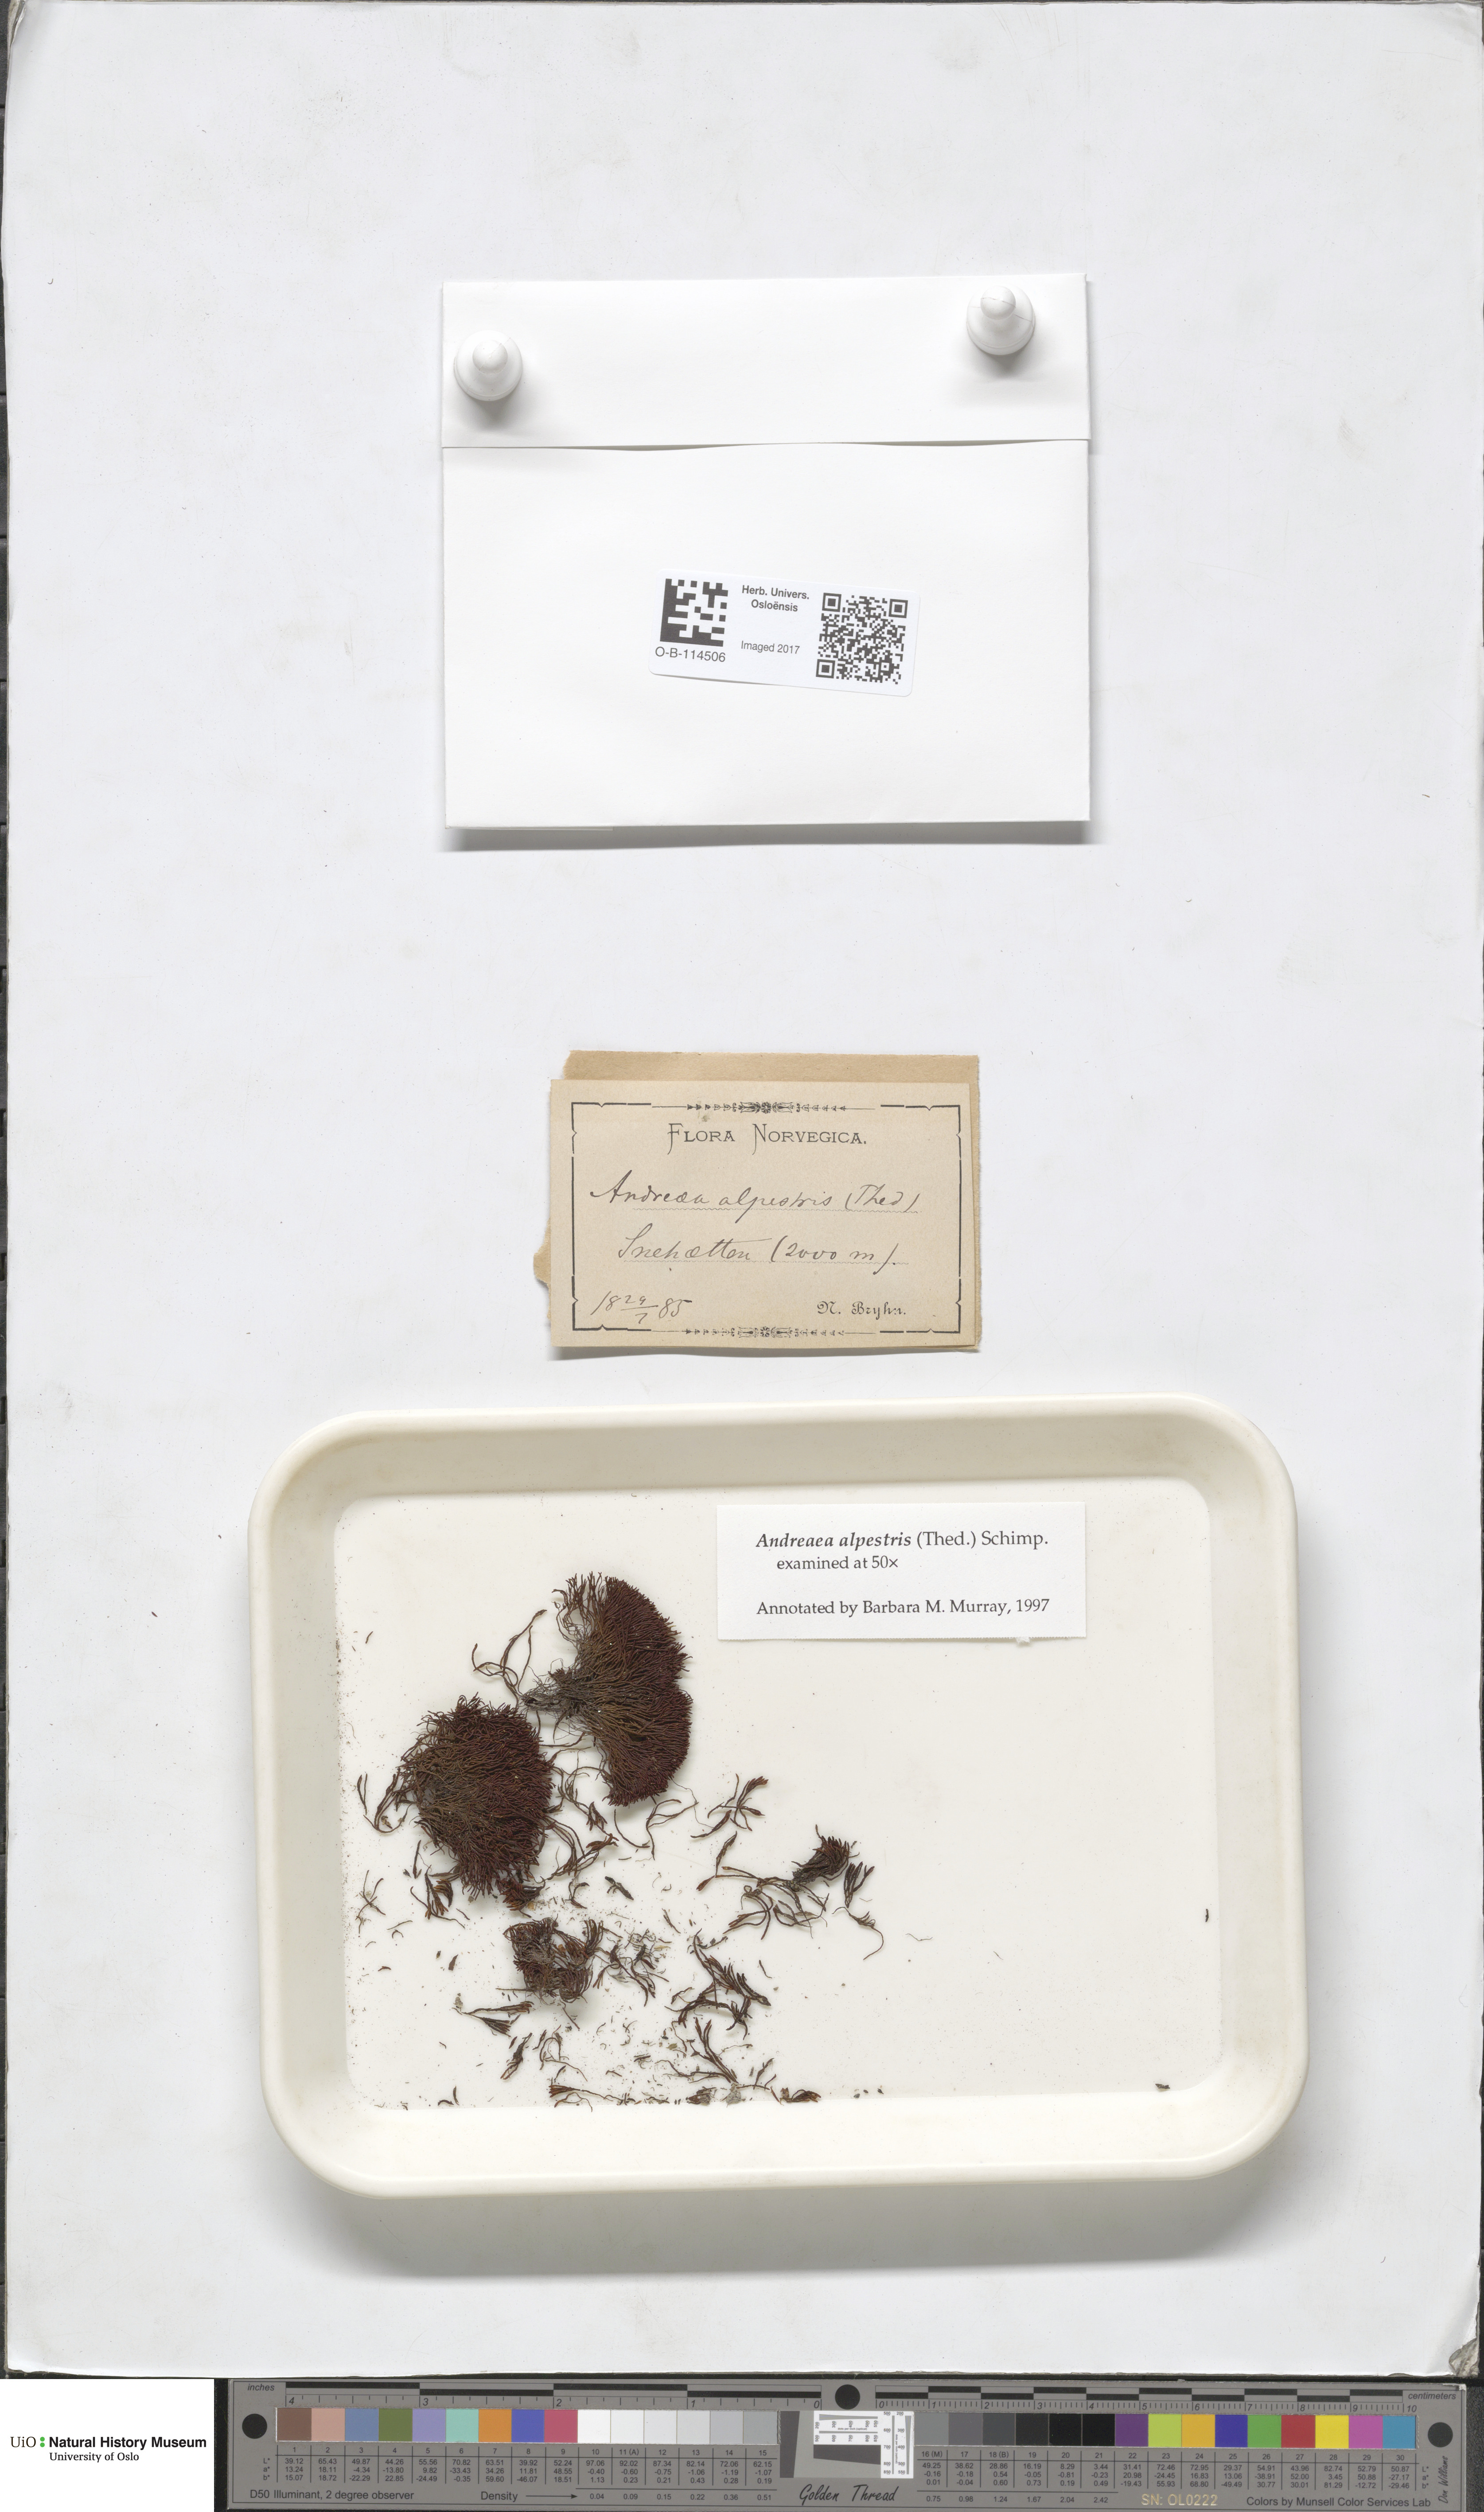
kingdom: Plantae
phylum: Bryophyta
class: Andreaeopsida
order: Andreaeales
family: Andreaeaceae
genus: Andreaea
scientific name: Andreaea alpestris
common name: Slender rock-moss
